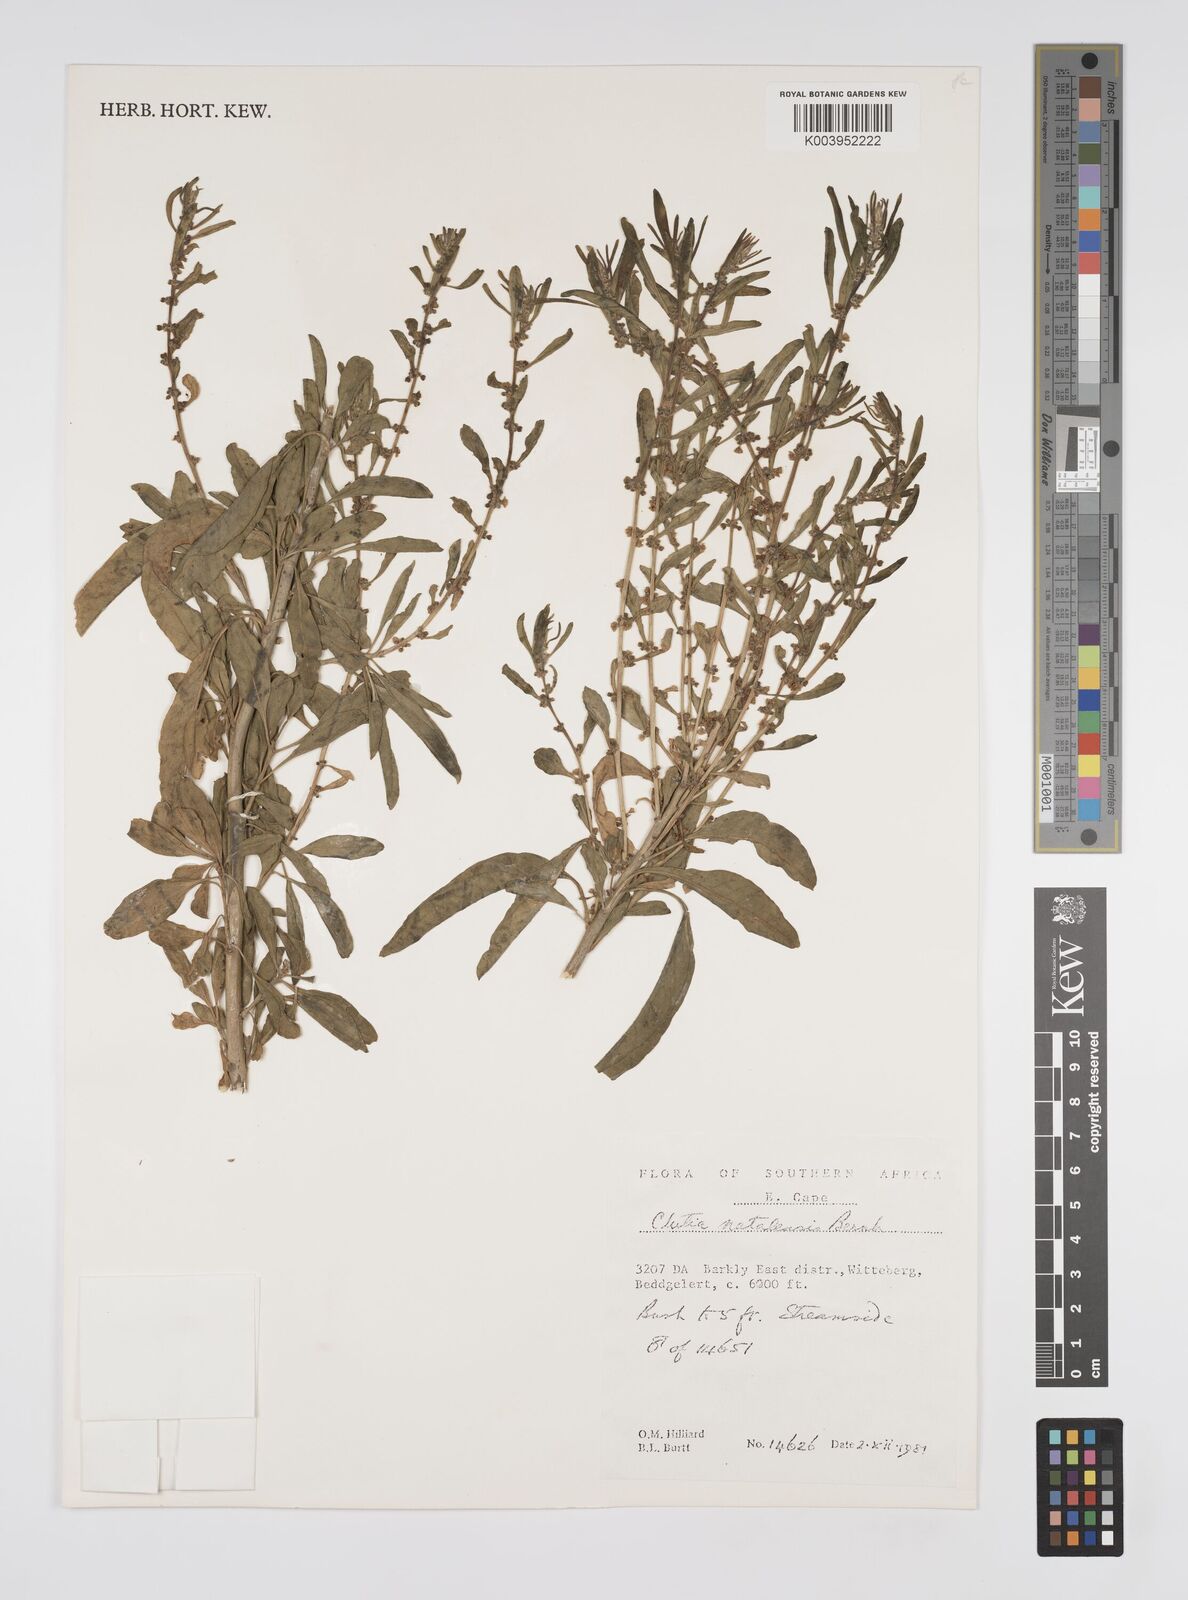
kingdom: Plantae
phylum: Tracheophyta
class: Magnoliopsida
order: Malpighiales
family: Peraceae
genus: Clutia
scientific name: Clutia natalensis
